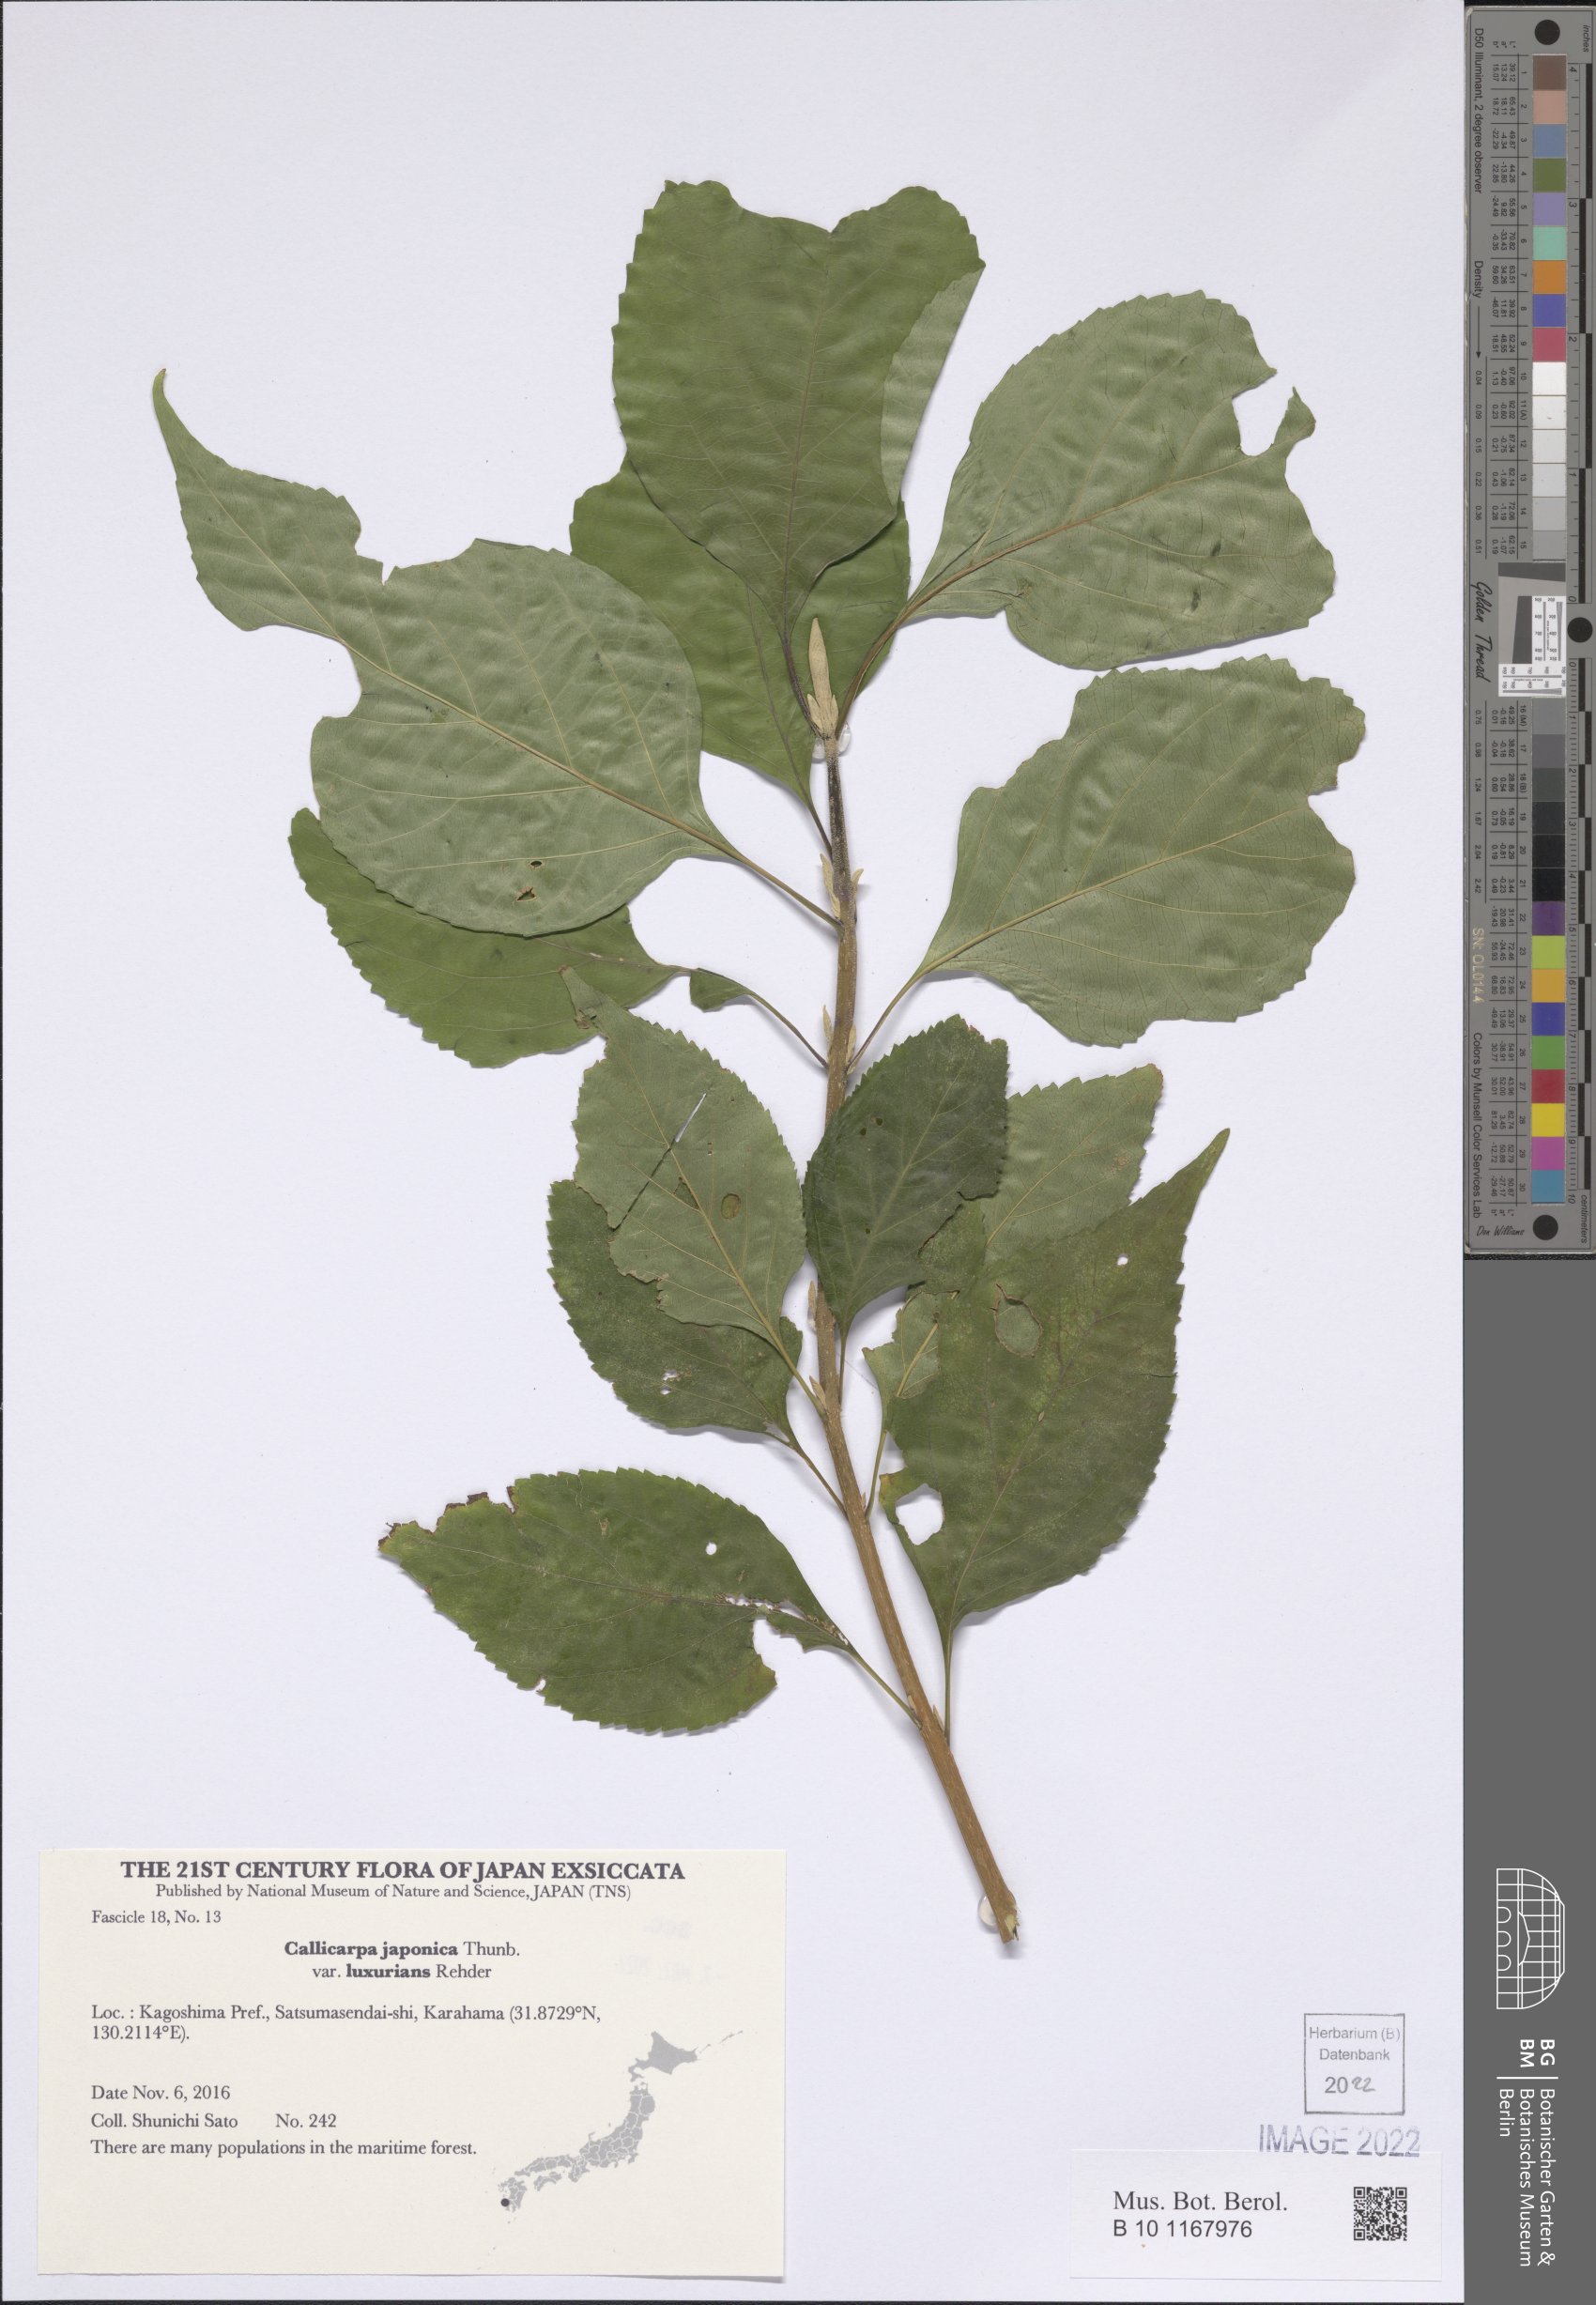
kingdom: Plantae
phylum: Tracheophyta
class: Magnoliopsida
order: Lamiales
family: Lamiaceae
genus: Callicarpa
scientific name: Callicarpa japonica
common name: Japanese beauty-berry
